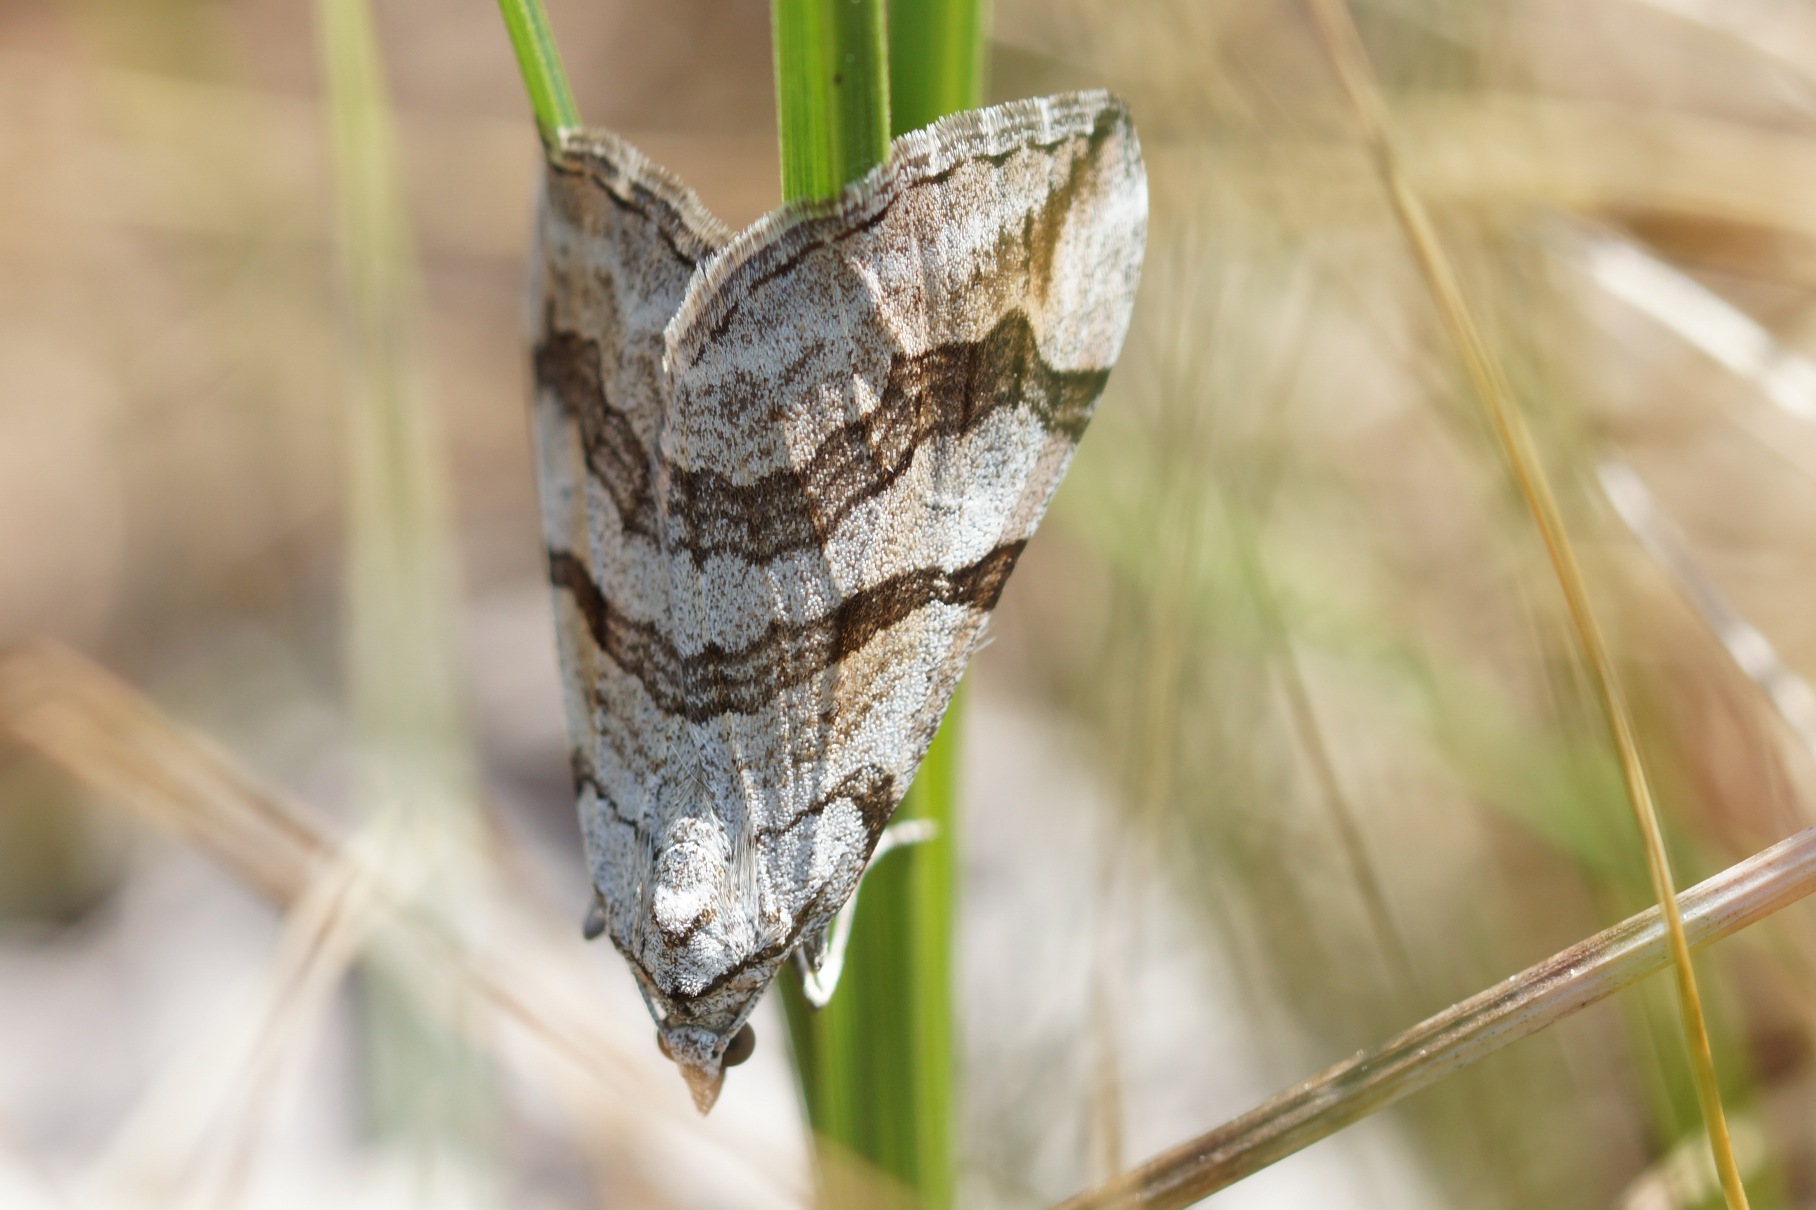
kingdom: Animalia
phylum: Arthropoda
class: Insecta
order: Lepidoptera
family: Geometridae
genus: Aplocera
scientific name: Aplocera efformata
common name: Perikonmåler
